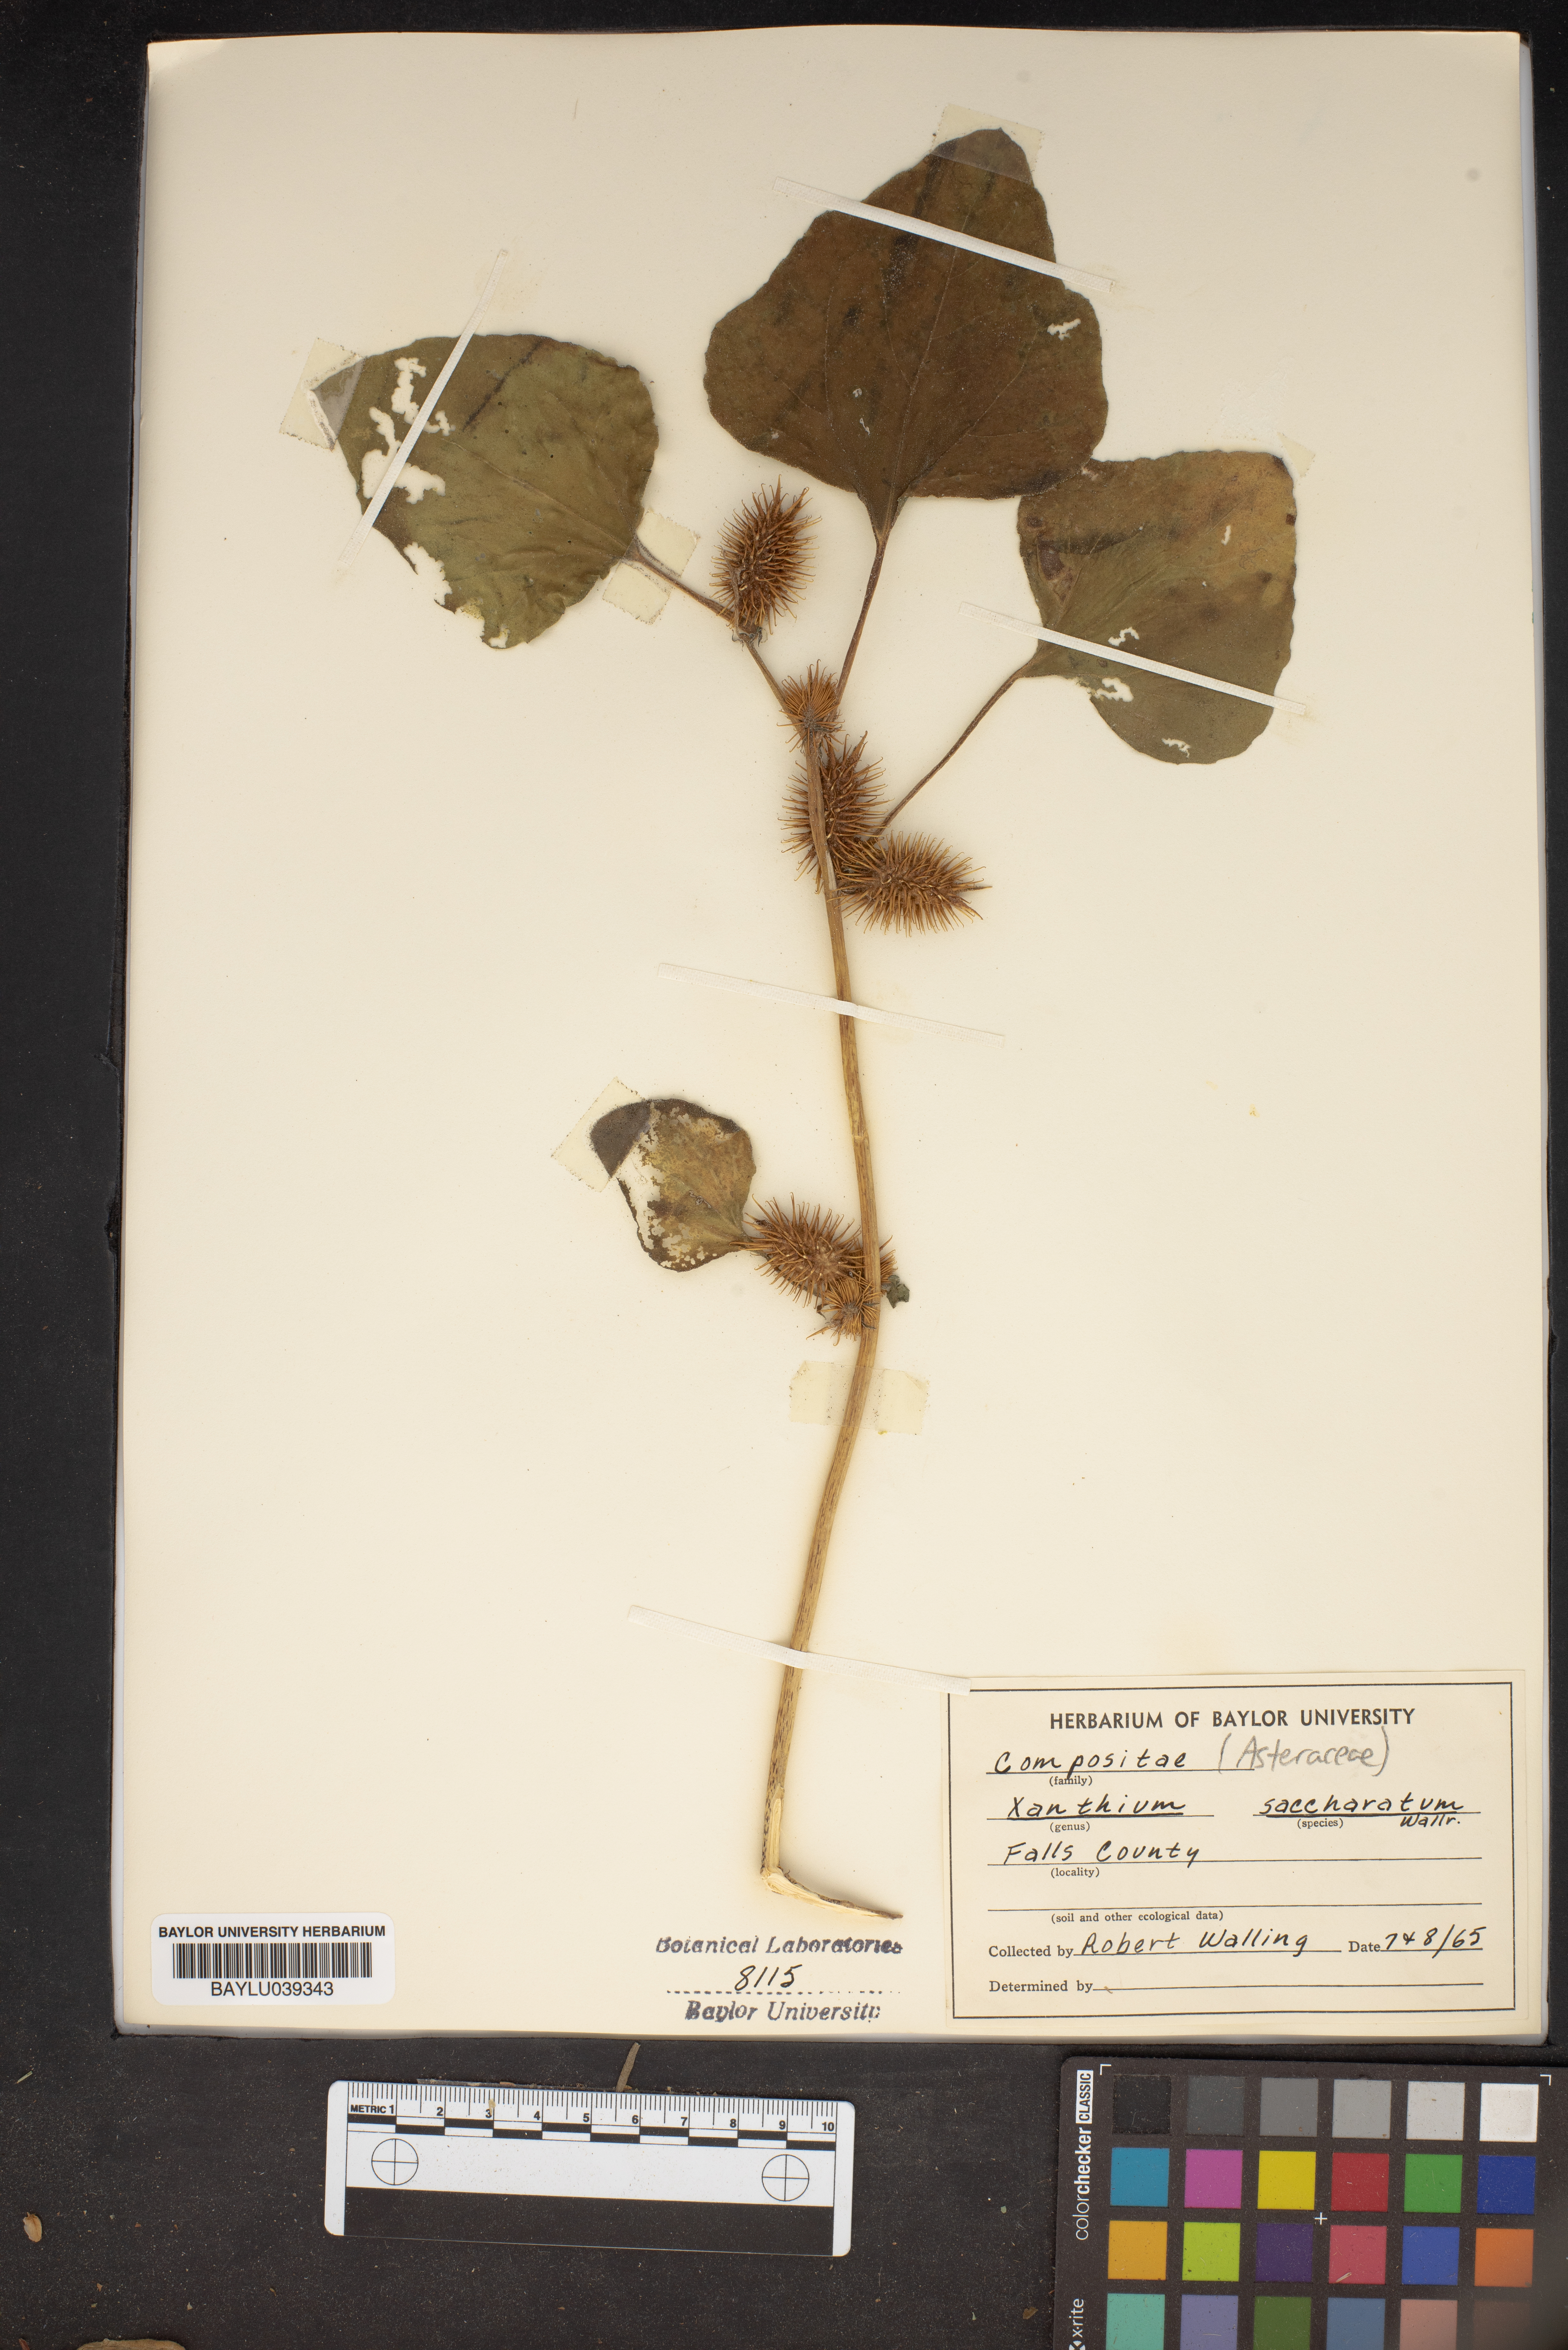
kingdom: Plantae
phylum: Tracheophyta
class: Magnoliopsida
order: Asterales
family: Asteraceae
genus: Xanthium
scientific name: Xanthium orientale
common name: Californian burr
